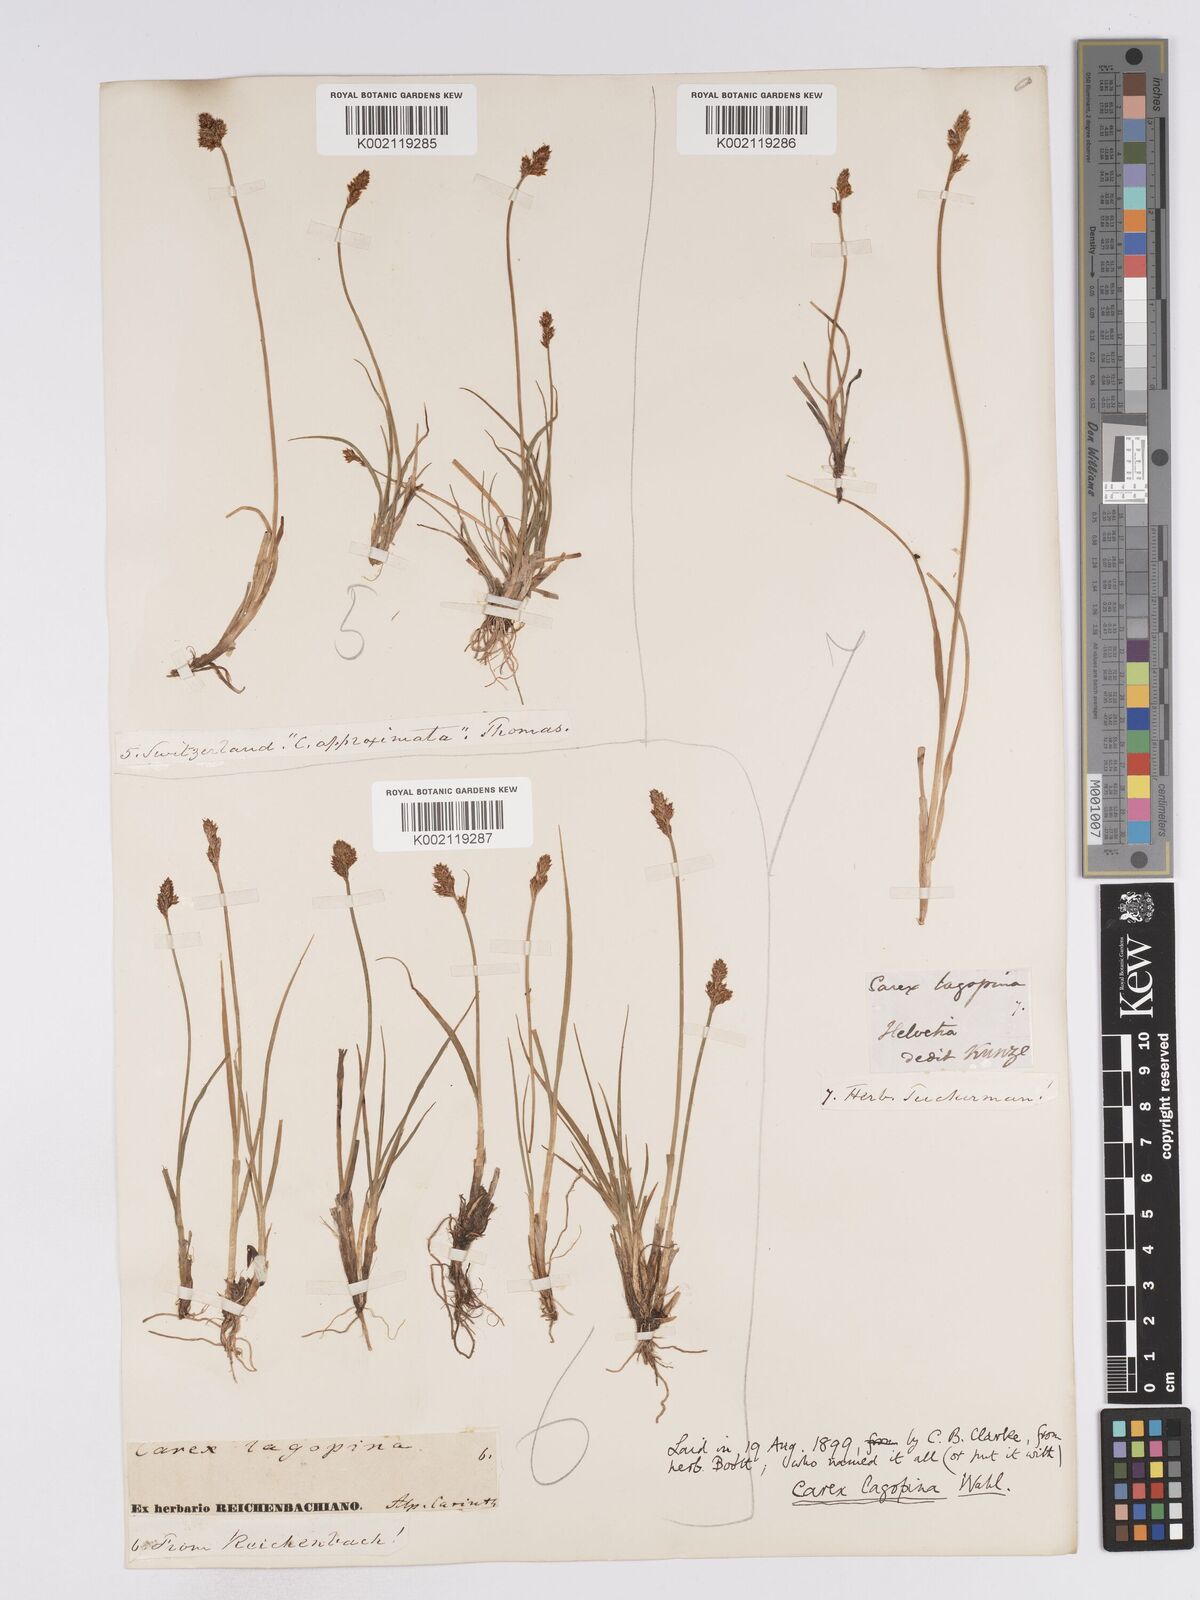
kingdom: Plantae
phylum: Tracheophyta
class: Liliopsida
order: Poales
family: Cyperaceae
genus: Carex
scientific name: Carex lachenalii
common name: Hare's-foot sedge
